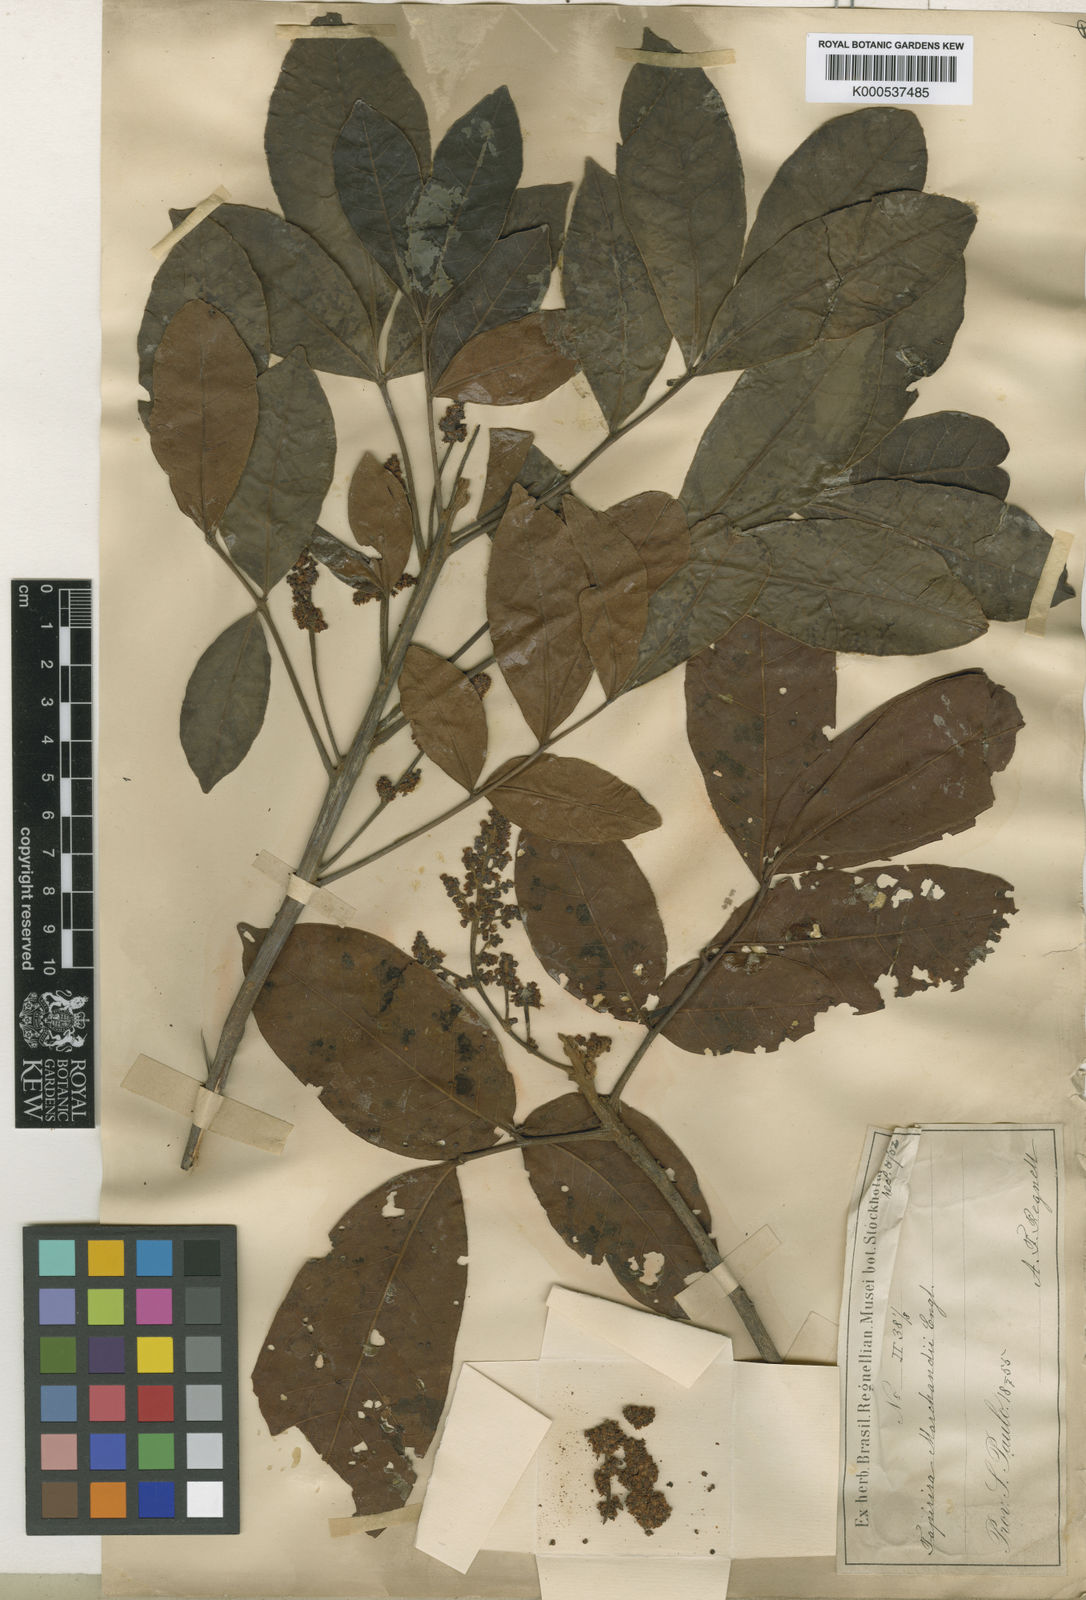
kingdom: Plantae
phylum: Tracheophyta
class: Magnoliopsida
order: Sapindales
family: Anacardiaceae
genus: Tapirira
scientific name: Tapirira obtusa
